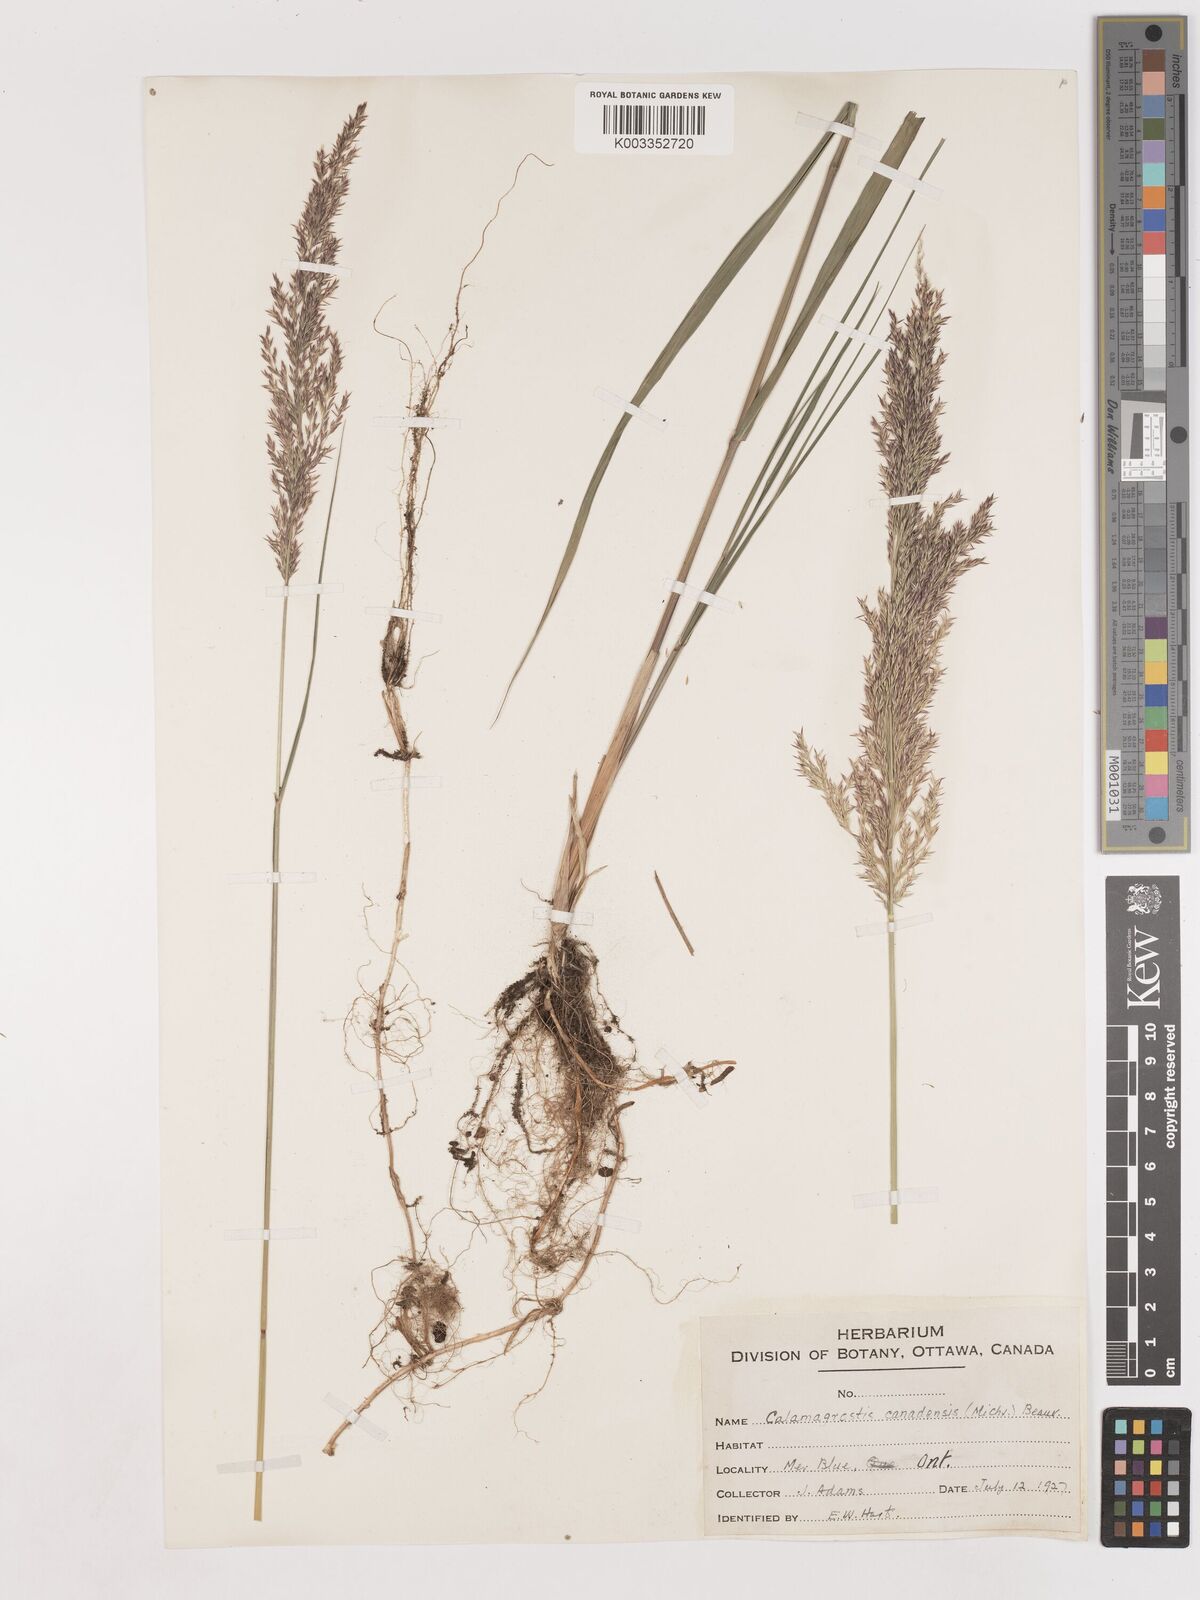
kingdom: Plantae
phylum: Tracheophyta
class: Liliopsida
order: Poales
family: Poaceae
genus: Calamagrostis
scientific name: Calamagrostis canadensis
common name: Canada bluejoint
